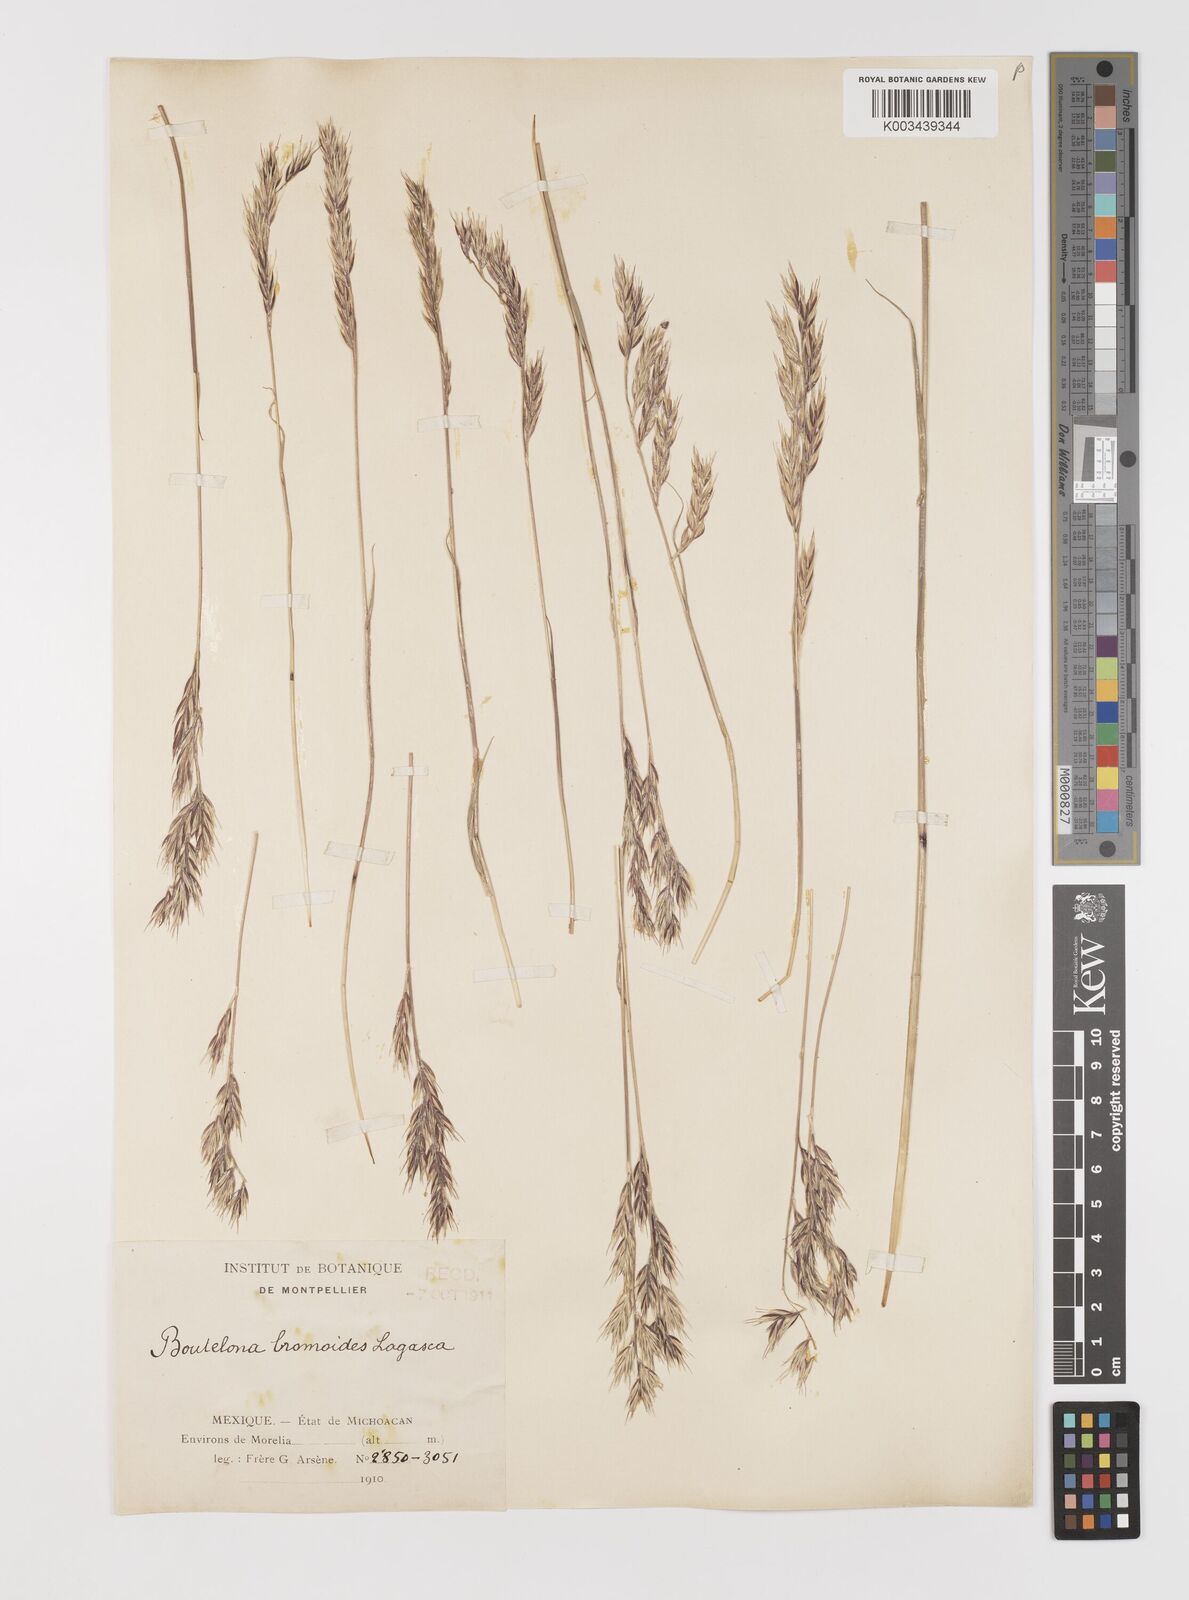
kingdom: Plantae
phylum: Tracheophyta
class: Liliopsida
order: Poales
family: Poaceae
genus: Bouteloua
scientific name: Bouteloua radicosa
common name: Purple grama
